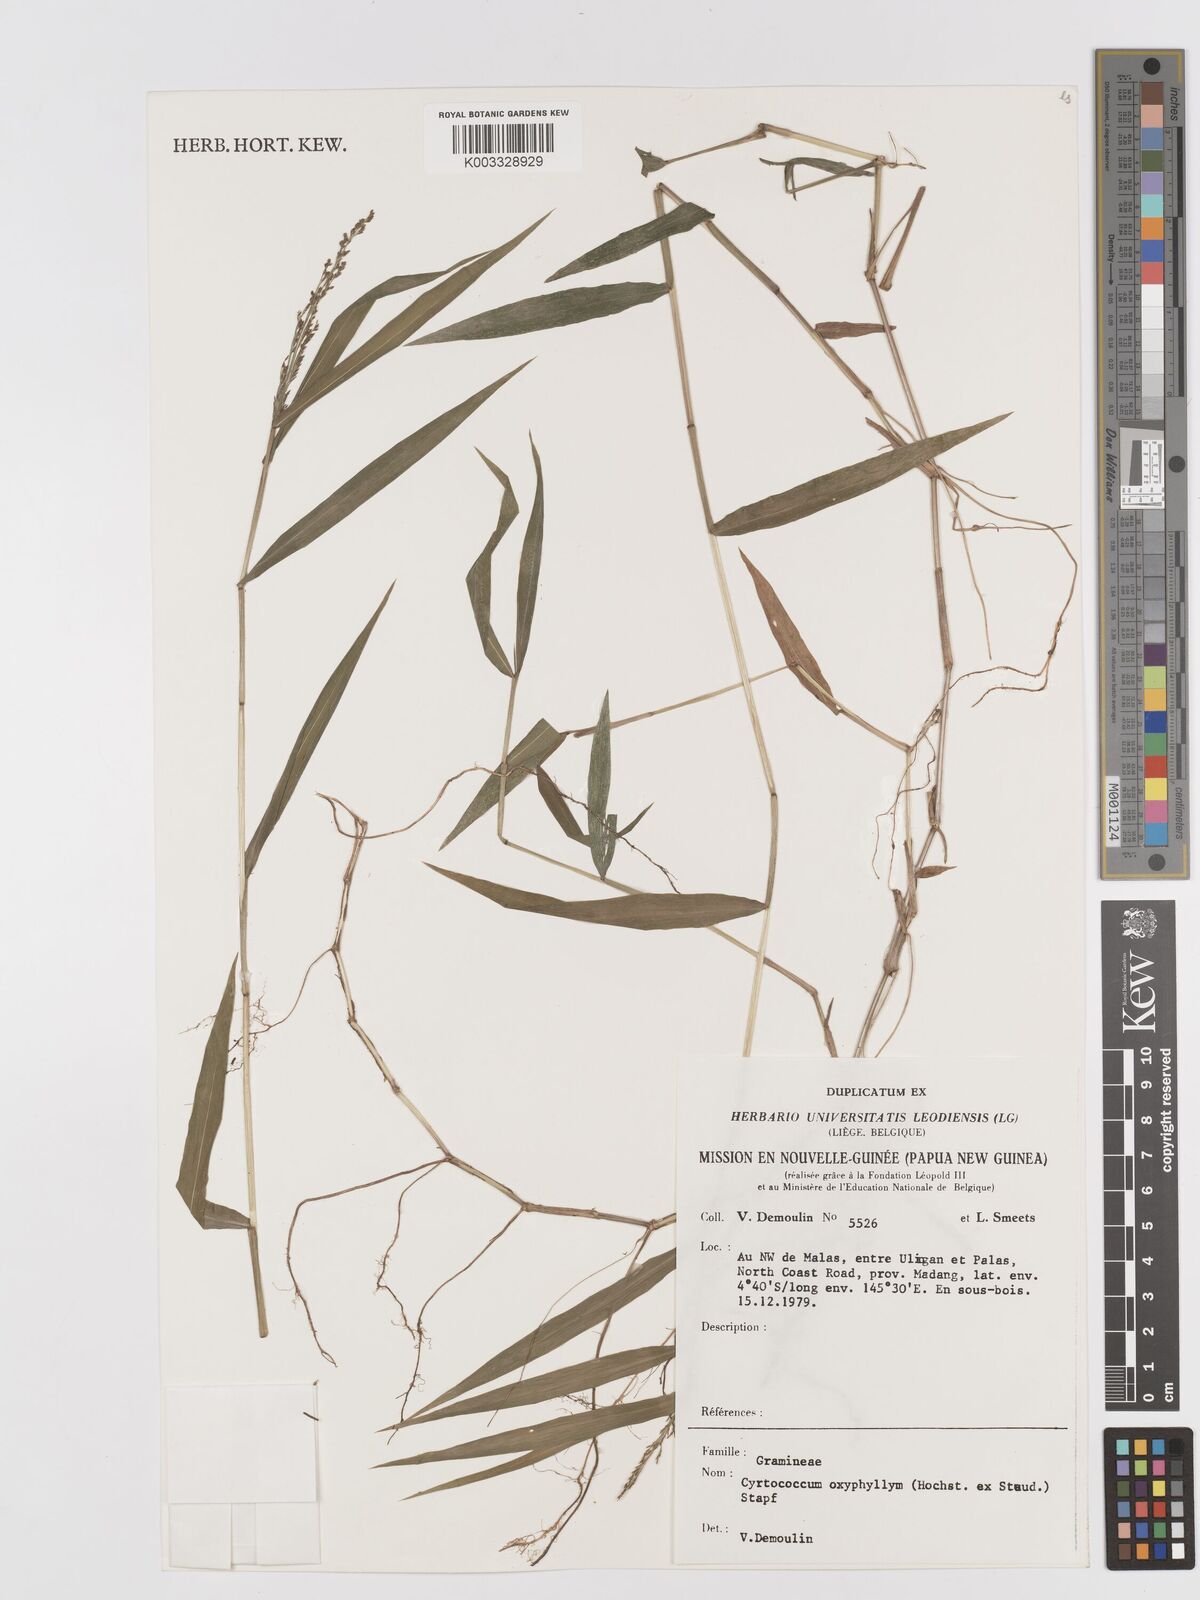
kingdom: Plantae
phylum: Tracheophyta
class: Liliopsida
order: Poales
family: Poaceae
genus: Cyrtococcum
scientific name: Cyrtococcum oxyphyllum
